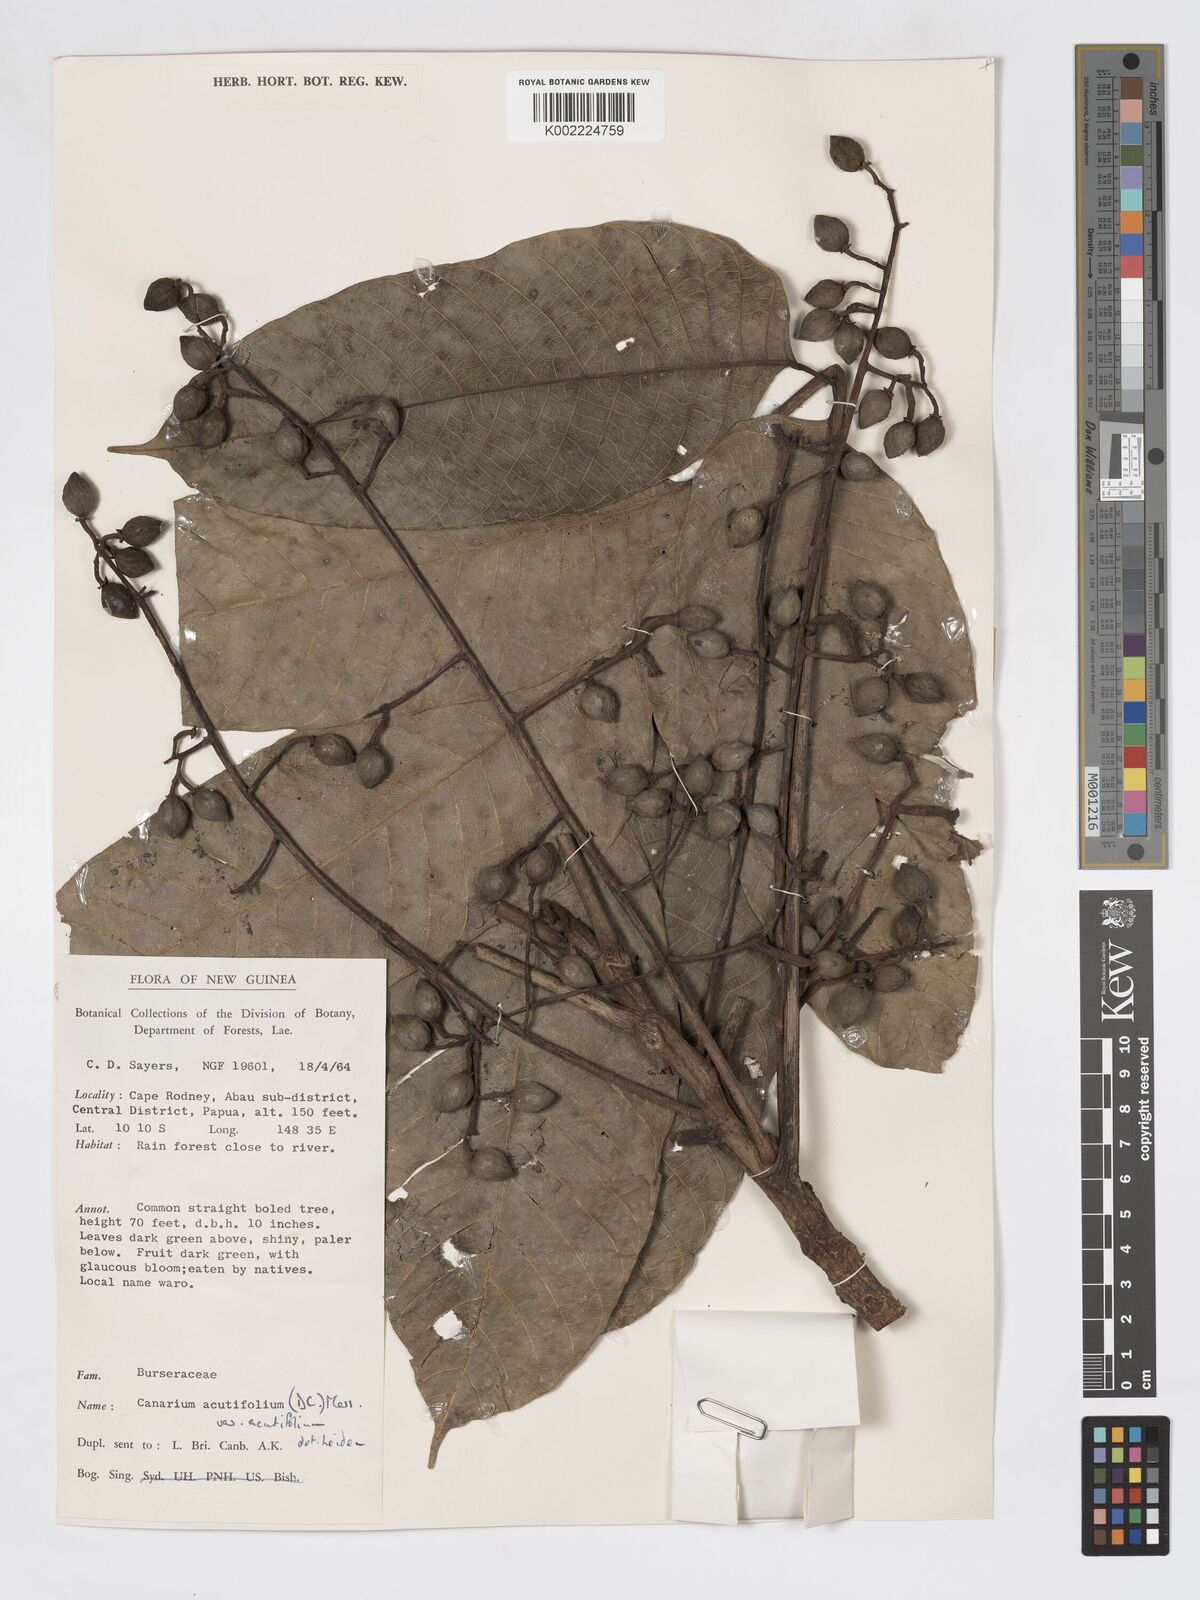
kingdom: Plantae
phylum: Tracheophyta
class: Magnoliopsida
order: Sapindales
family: Burseraceae
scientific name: Burseraceae
